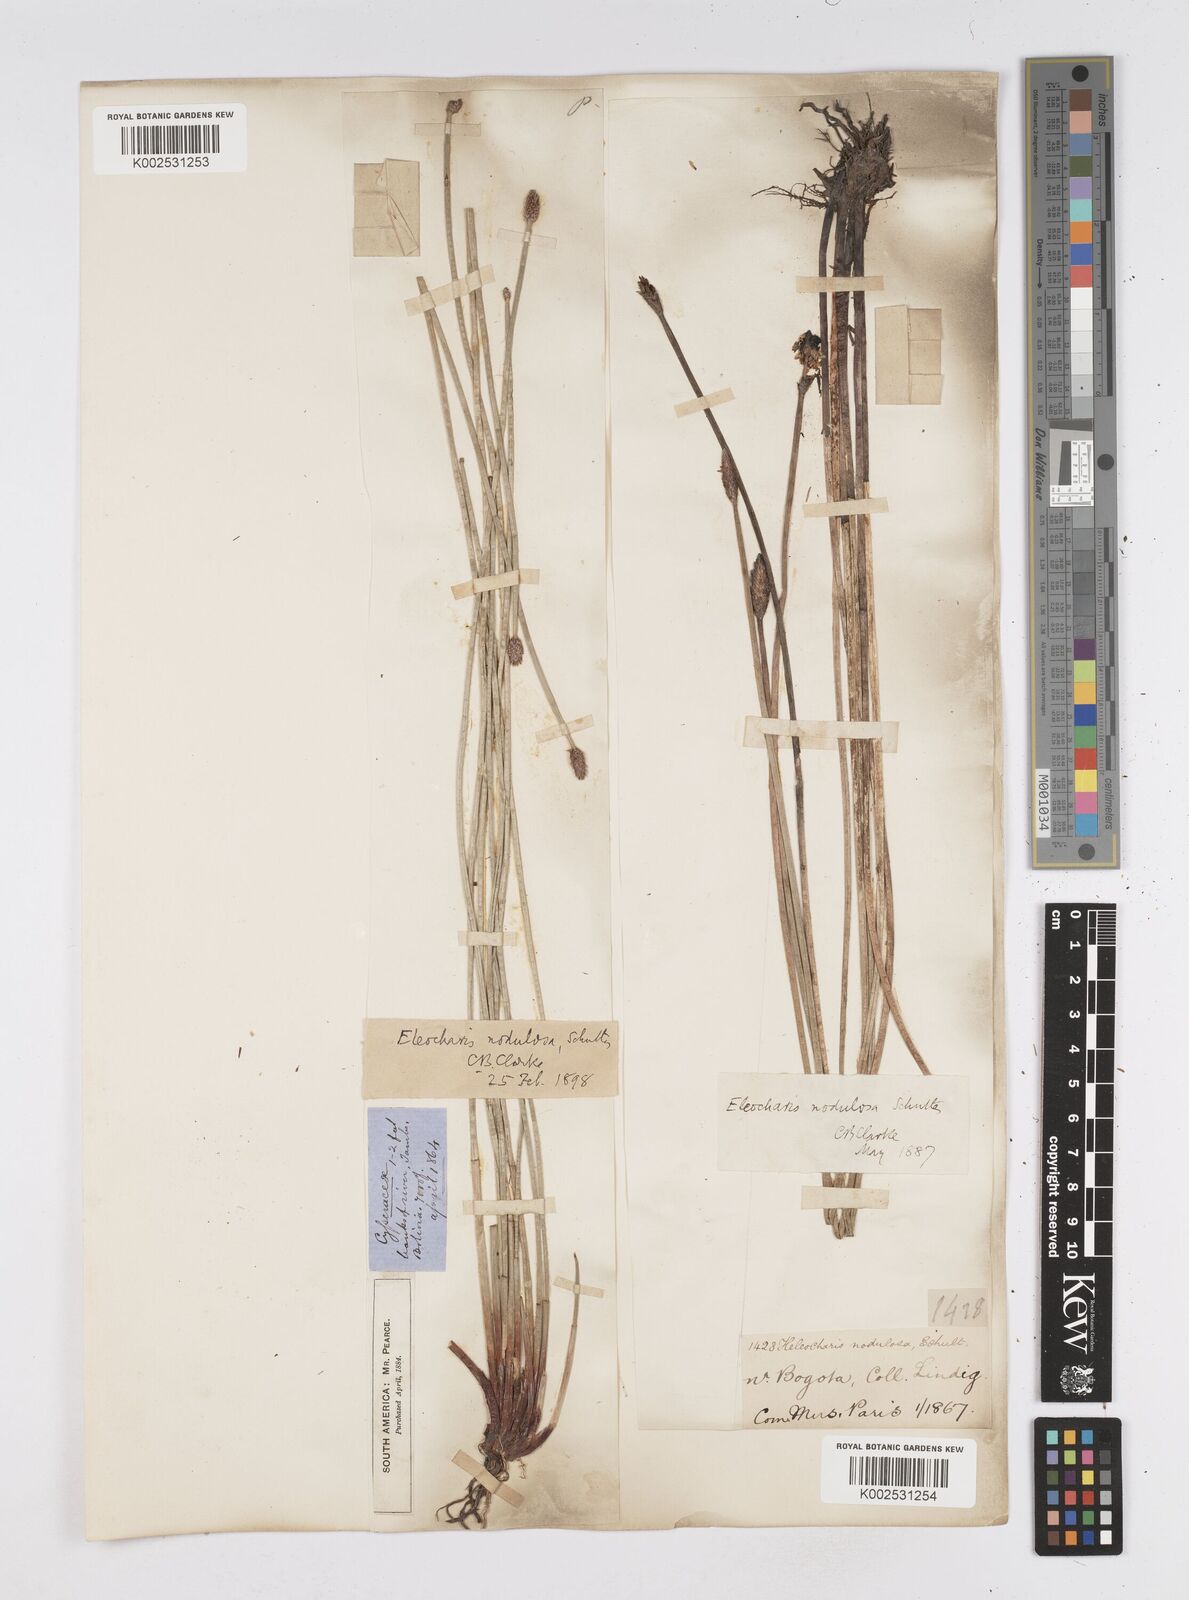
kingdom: Plantae
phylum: Tracheophyta
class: Liliopsida
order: Poales
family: Cyperaceae
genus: Eleocharis
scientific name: Eleocharis montana
